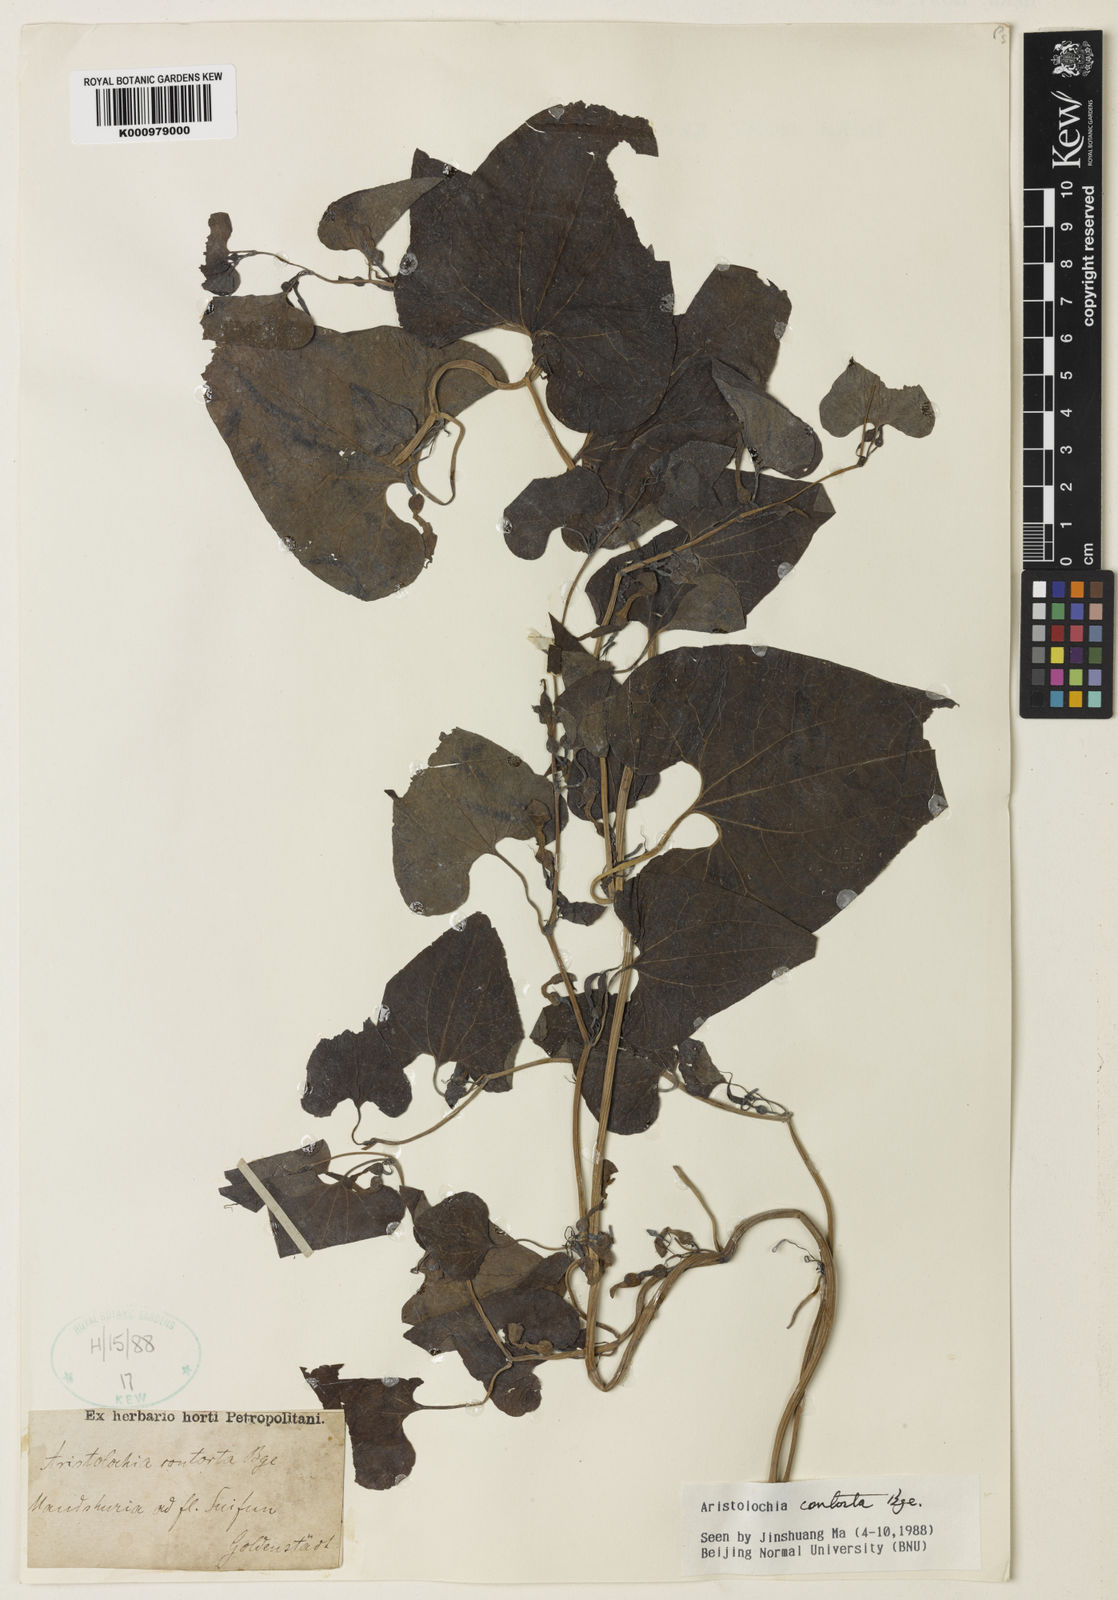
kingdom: Plantae
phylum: Tracheophyta
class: Magnoliopsida
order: Piperales
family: Aristolochiaceae
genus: Aristolochia
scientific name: Aristolochia contorta
